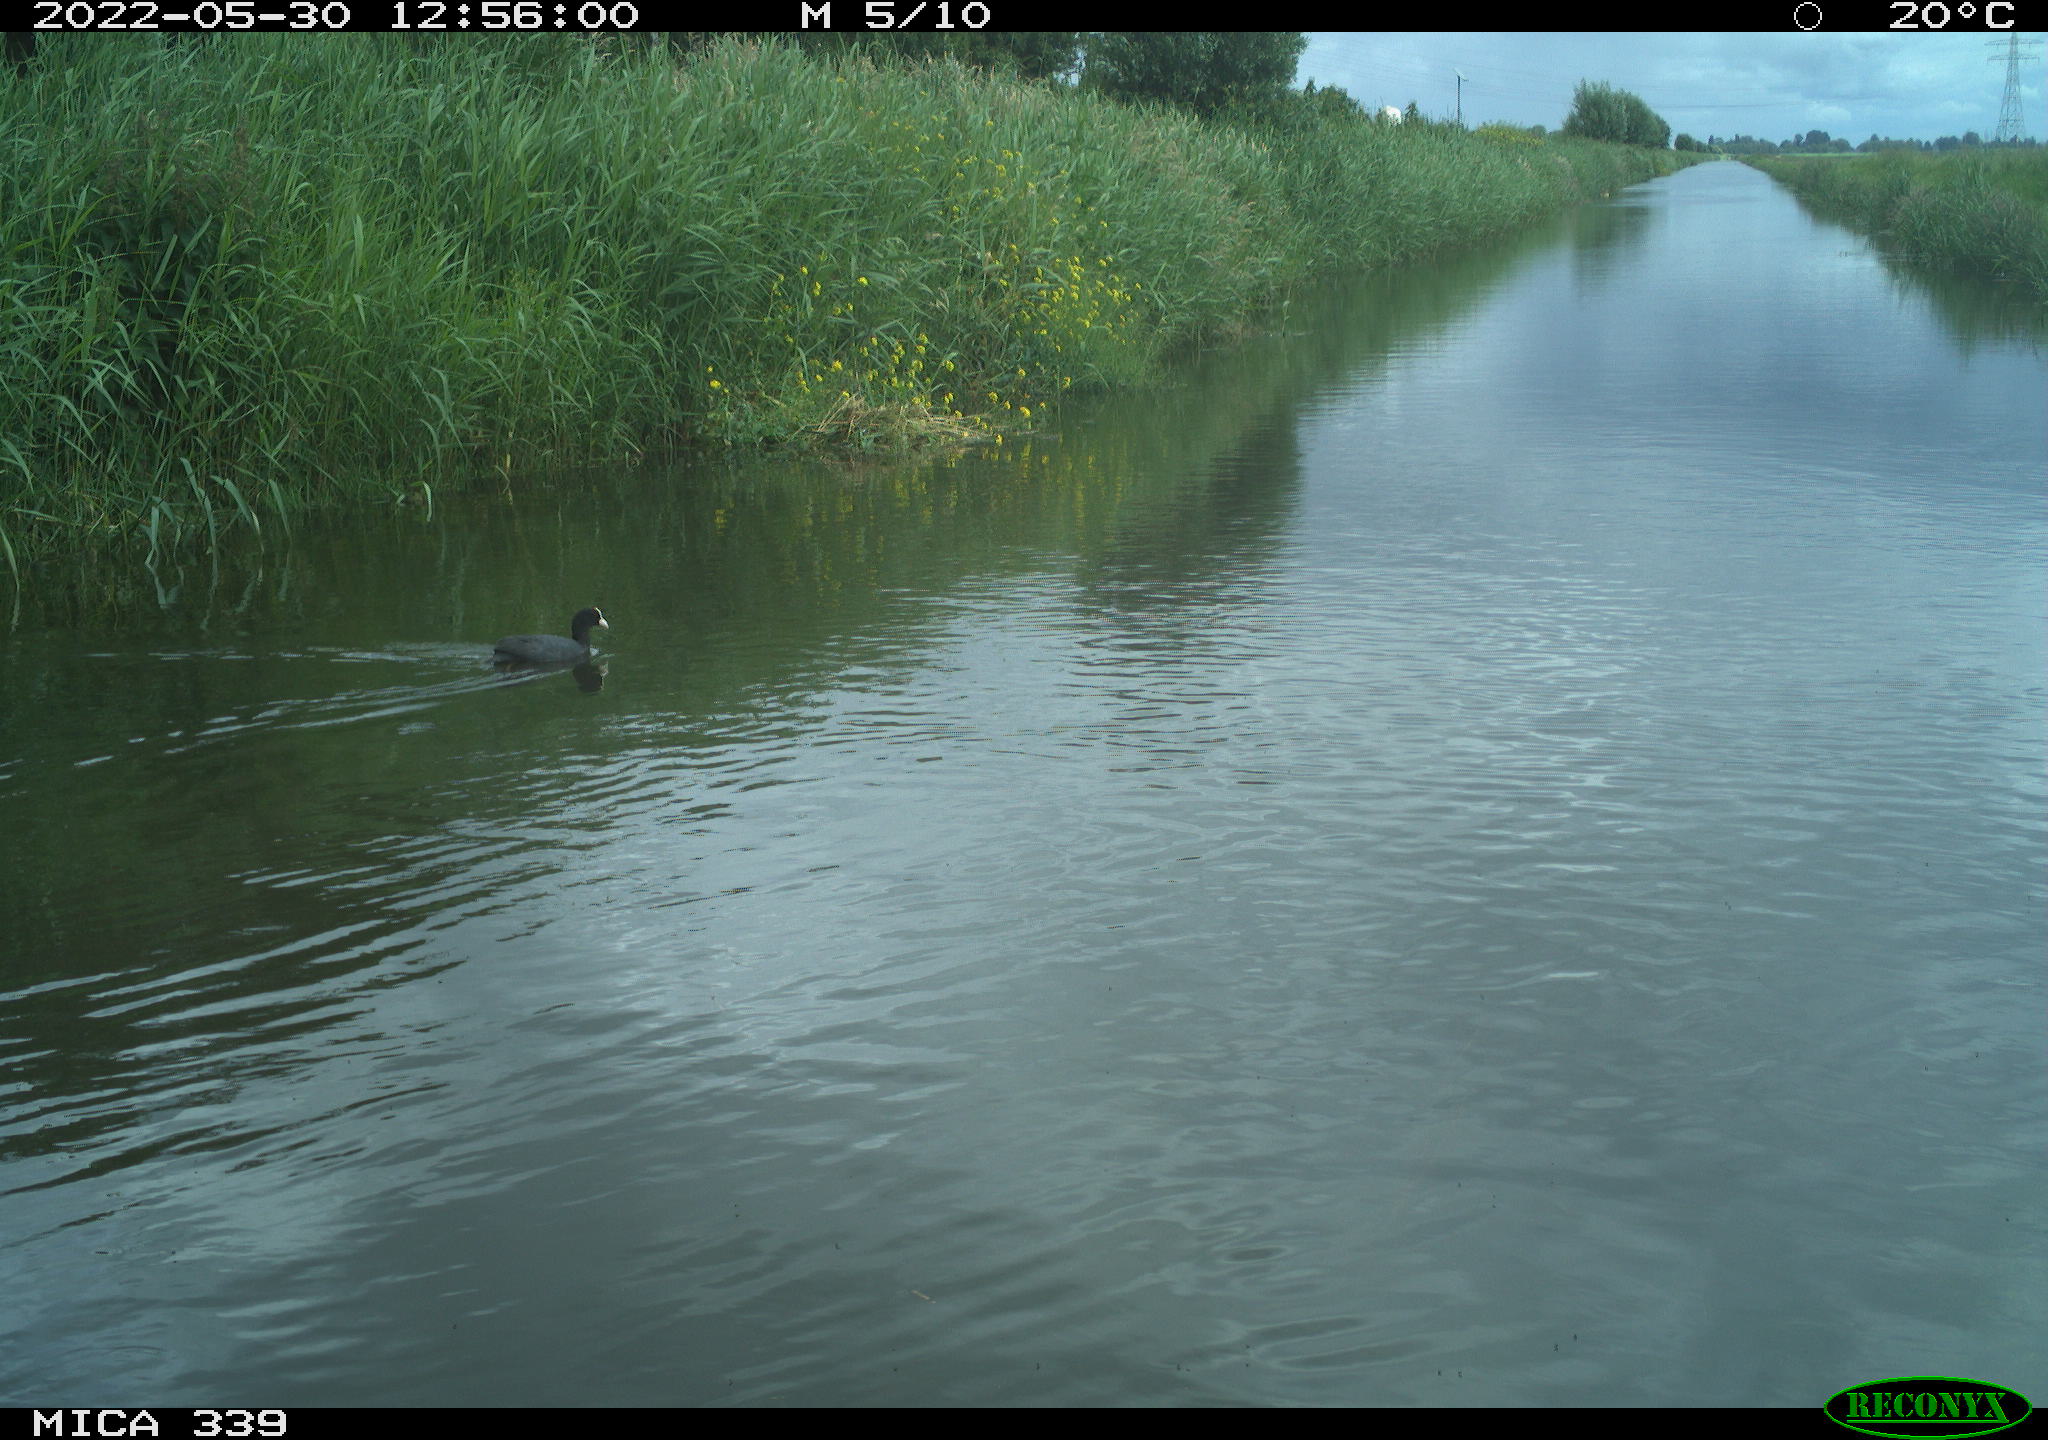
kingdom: Animalia
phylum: Chordata
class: Aves
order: Gruiformes
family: Rallidae
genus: Fulica
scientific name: Fulica atra
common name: Eurasian coot
